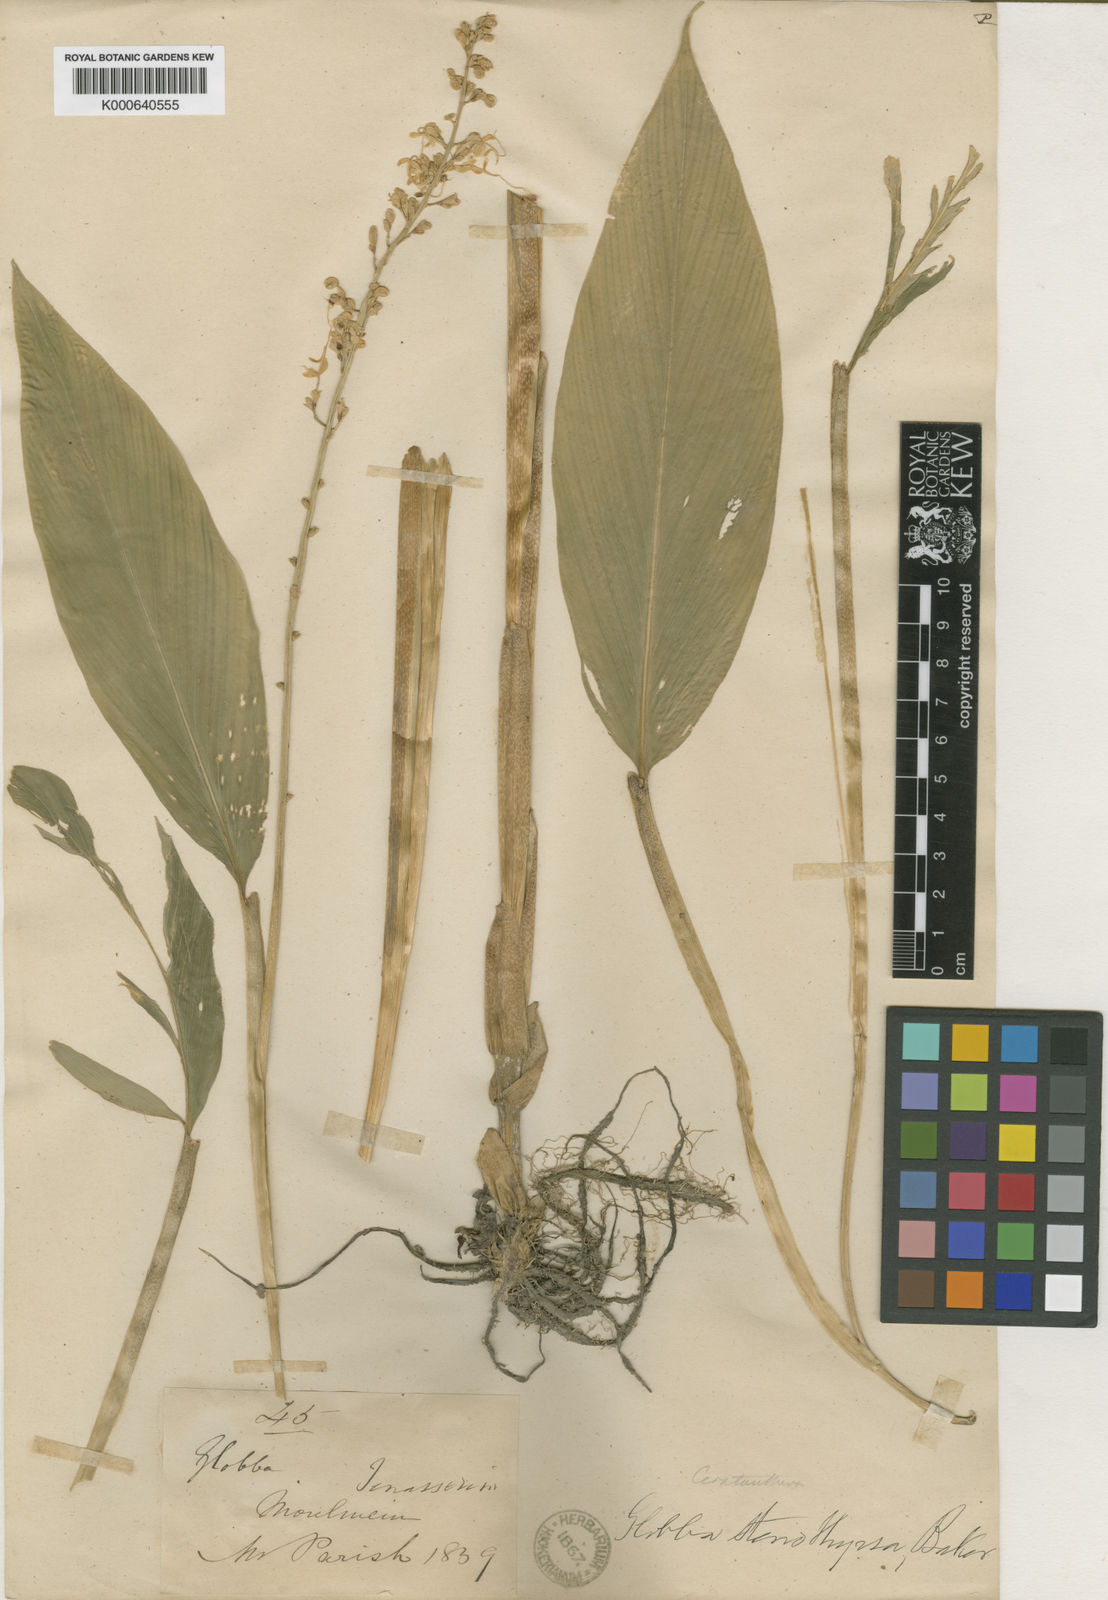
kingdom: Plantae
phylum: Tracheophyta
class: Liliopsida
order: Zingiberales
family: Zingiberaceae
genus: Globba
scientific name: Globba pendula
